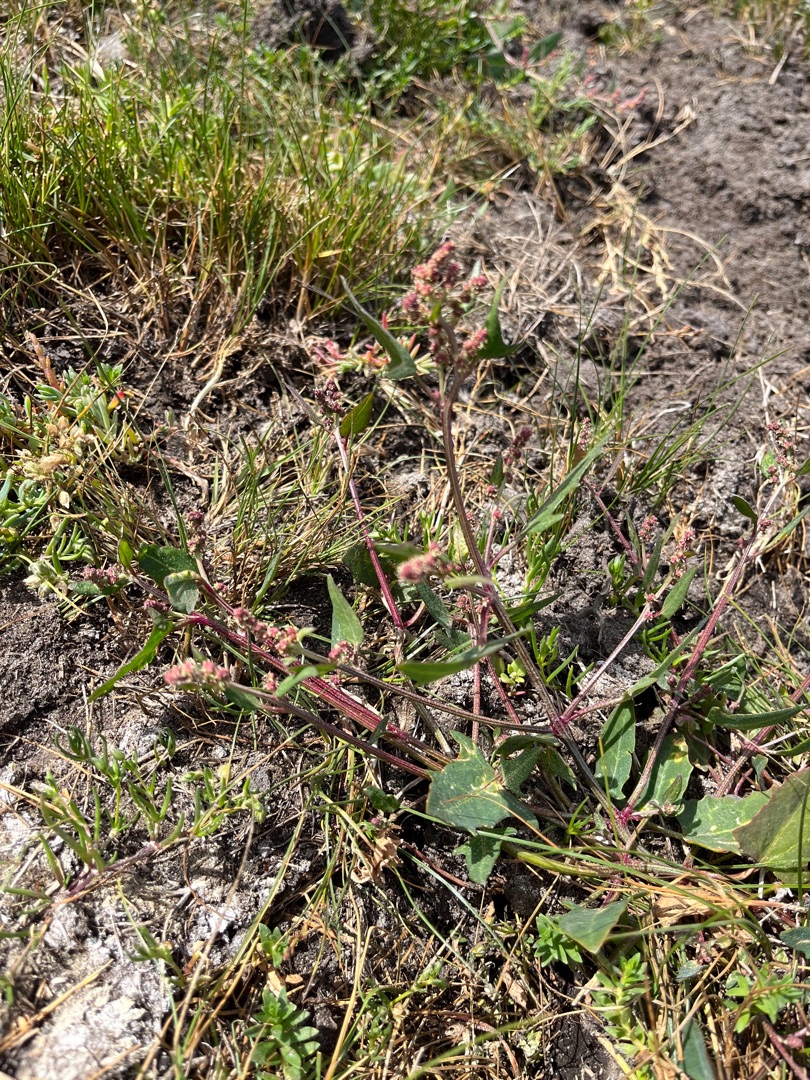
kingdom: Plantae
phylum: Tracheophyta
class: Magnoliopsida
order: Caryophyllales
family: Amaranthaceae
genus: Atriplex
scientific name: Atriplex prostrata
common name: Spyd-mælde
